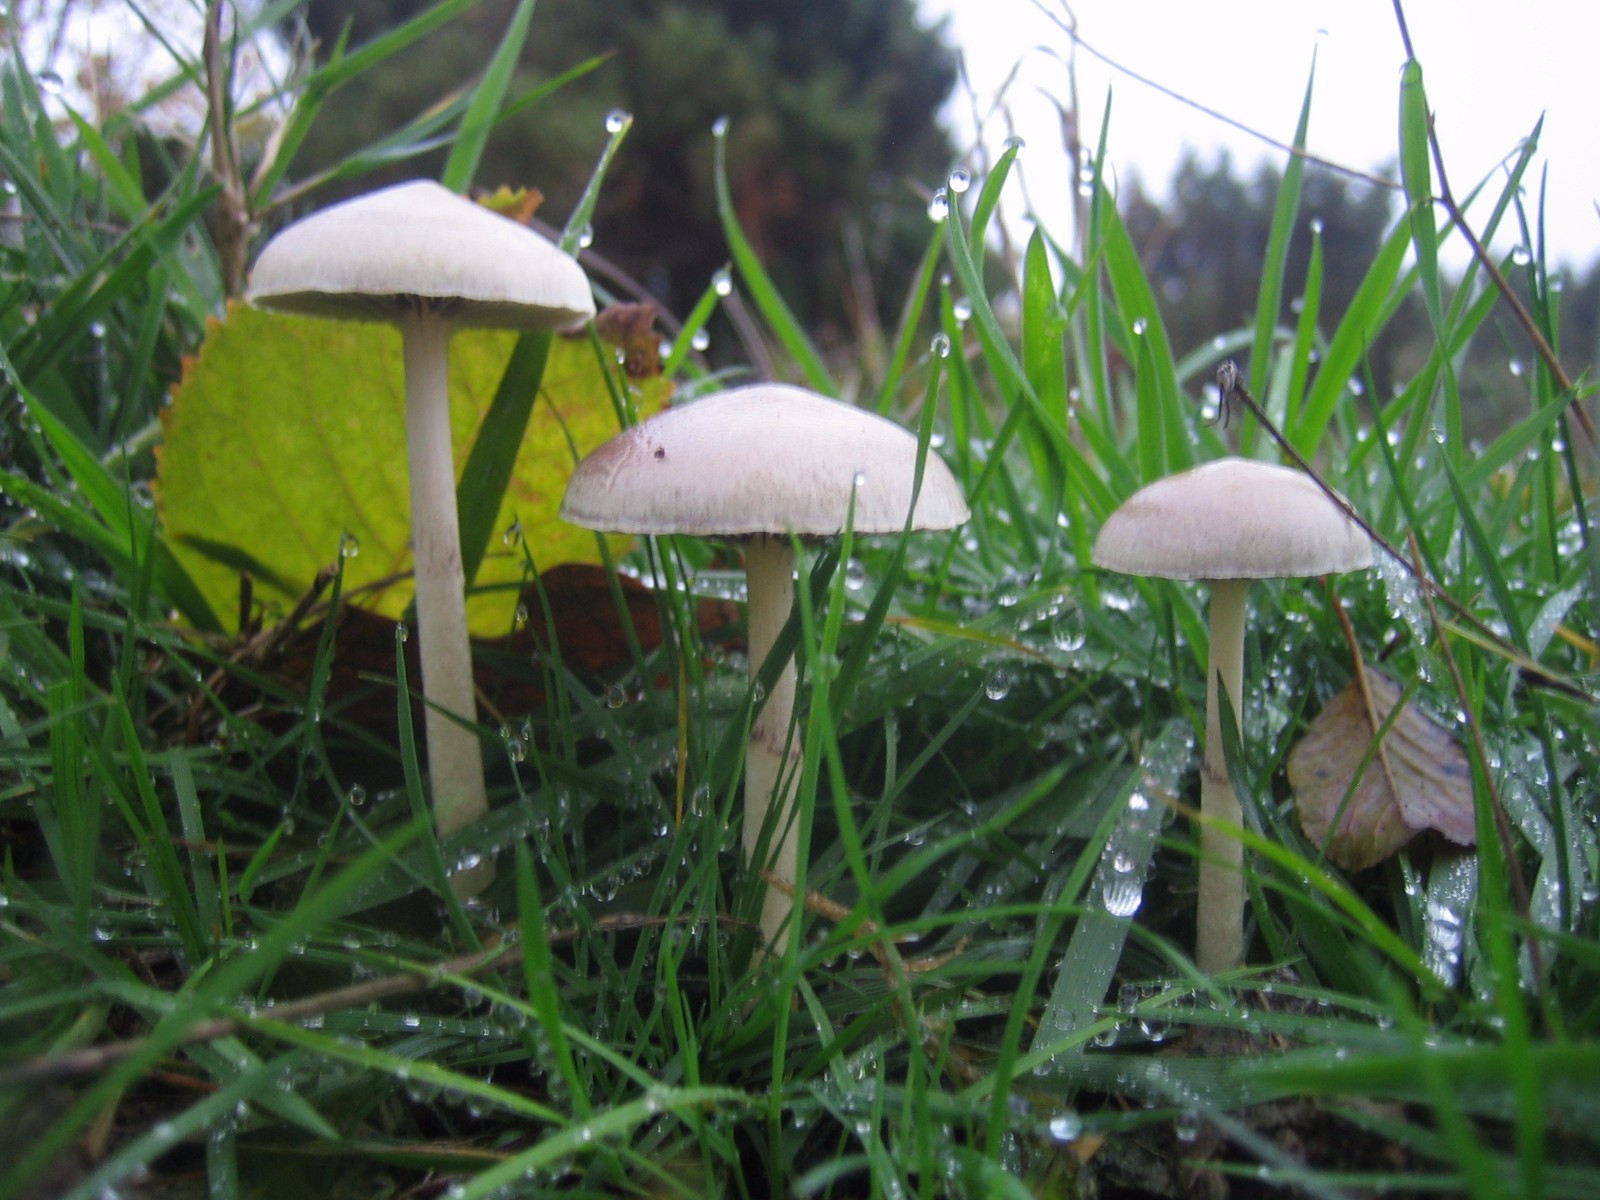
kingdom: Fungi
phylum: Basidiomycota
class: Agaricomycetes
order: Agaricales
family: Strophariaceae
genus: Protostropharia
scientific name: Protostropharia semiglobata
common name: halvkugleformet bredblad
